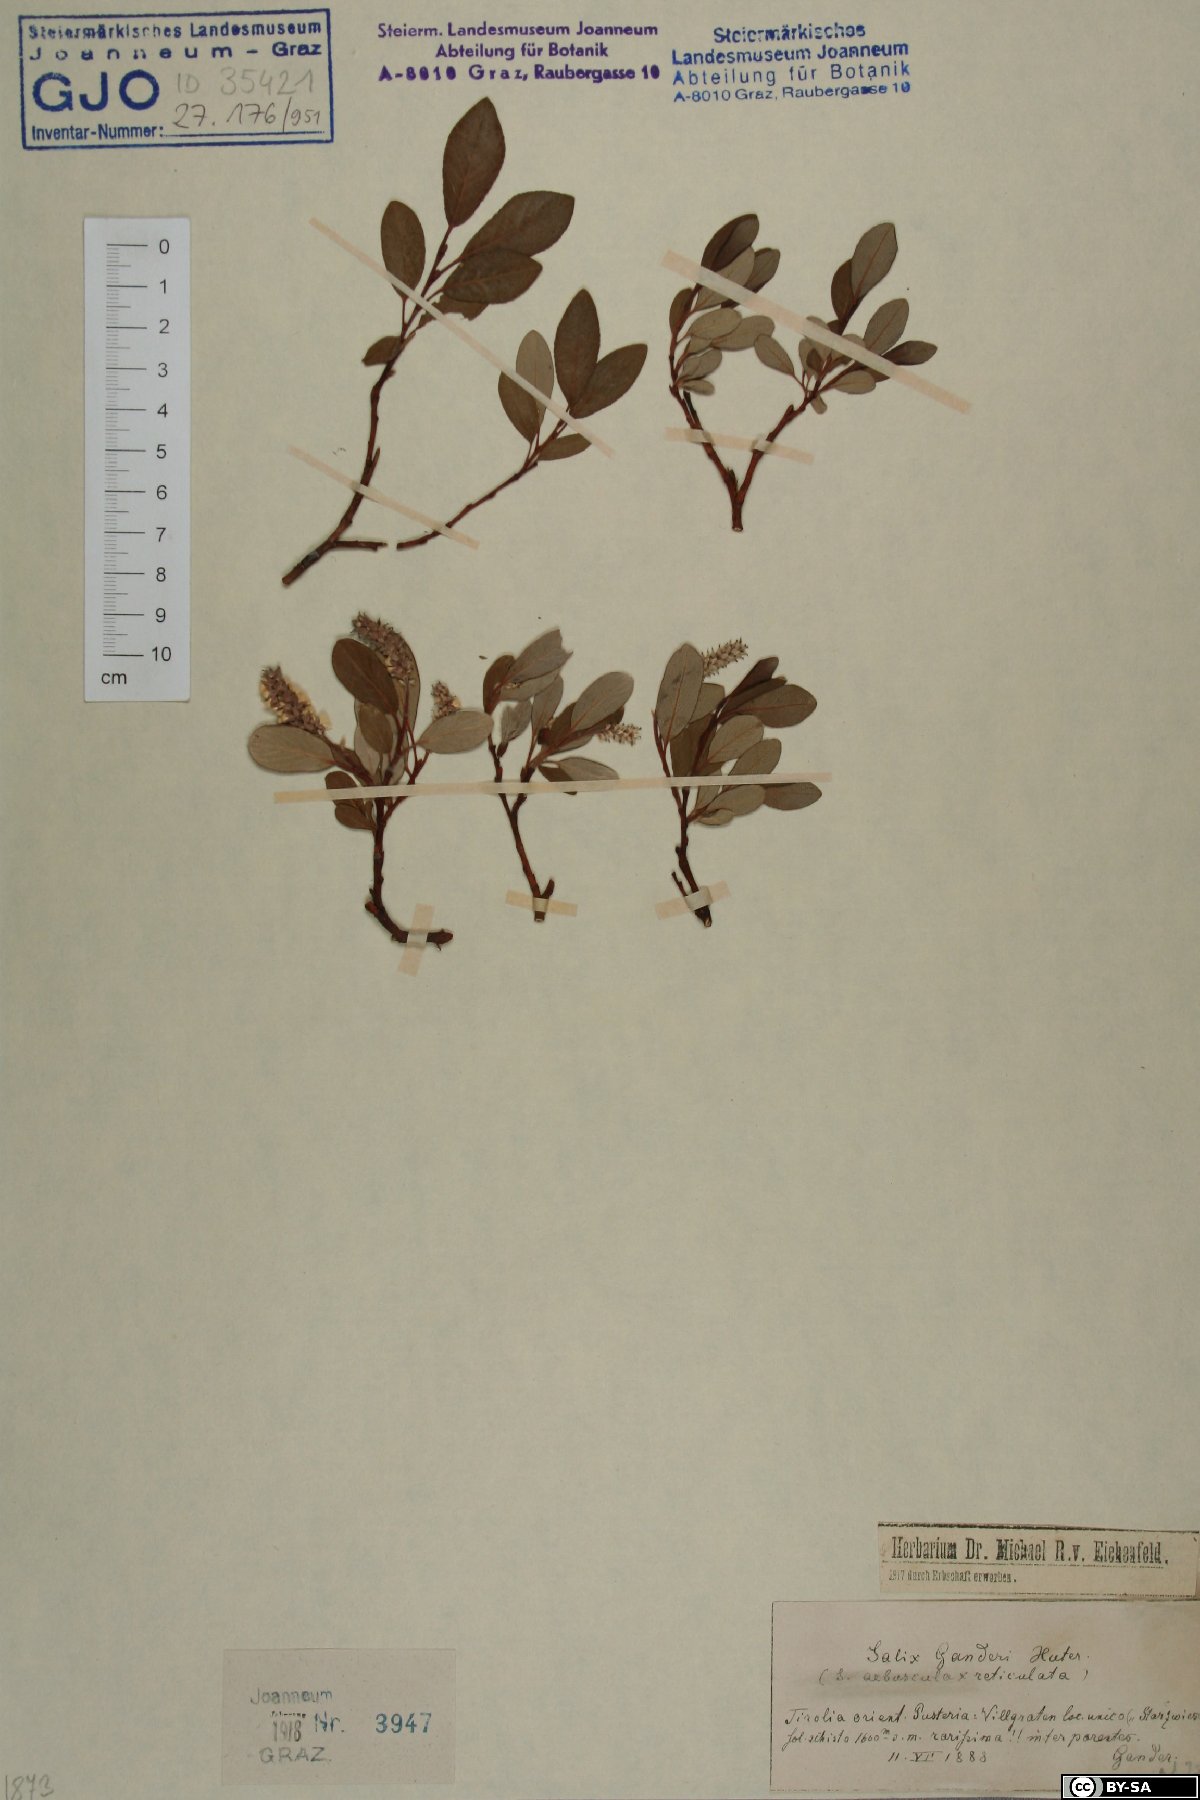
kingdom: Plantae
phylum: Tracheophyta
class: Magnoliopsida
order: Malpighiales
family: Salicaceae
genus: Salix
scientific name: Salix ganderi
